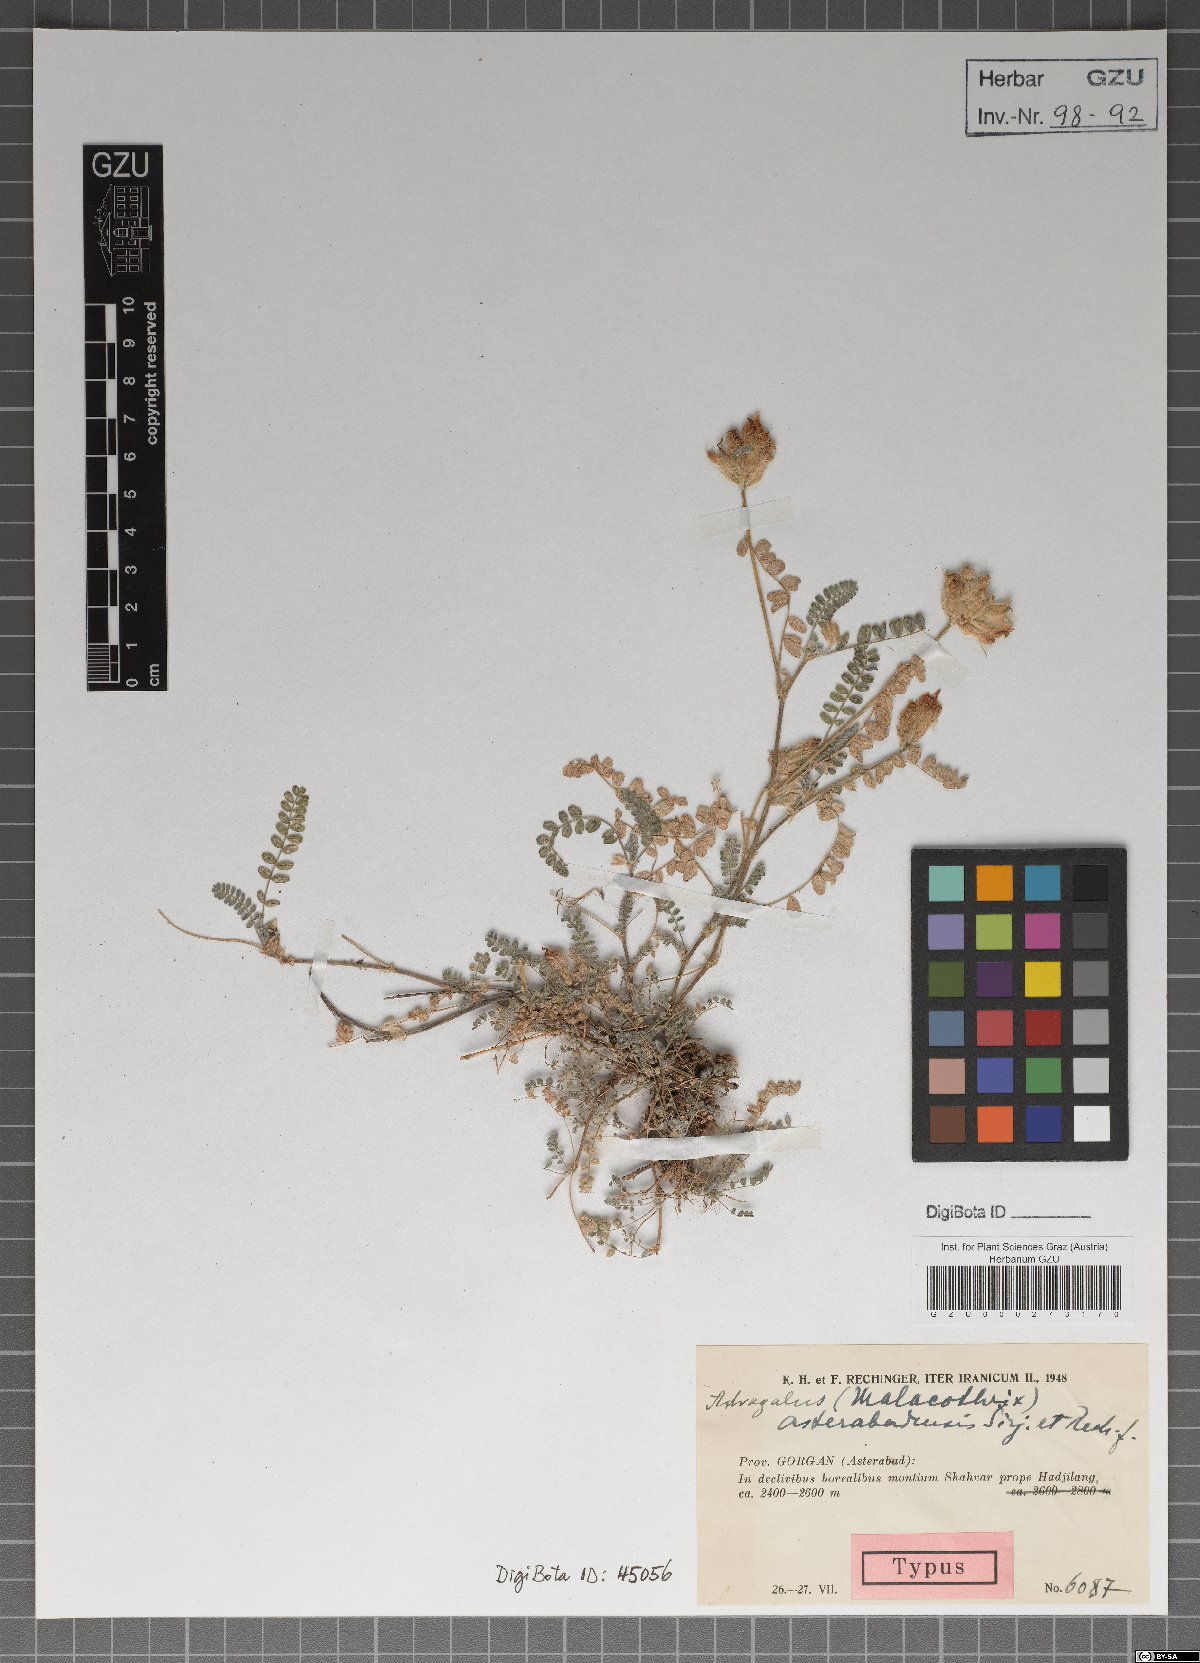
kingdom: Plantae
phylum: Tracheophyta
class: Magnoliopsida
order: Fabales
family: Fabaceae
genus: Astragalus
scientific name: Astragalus nurensis
